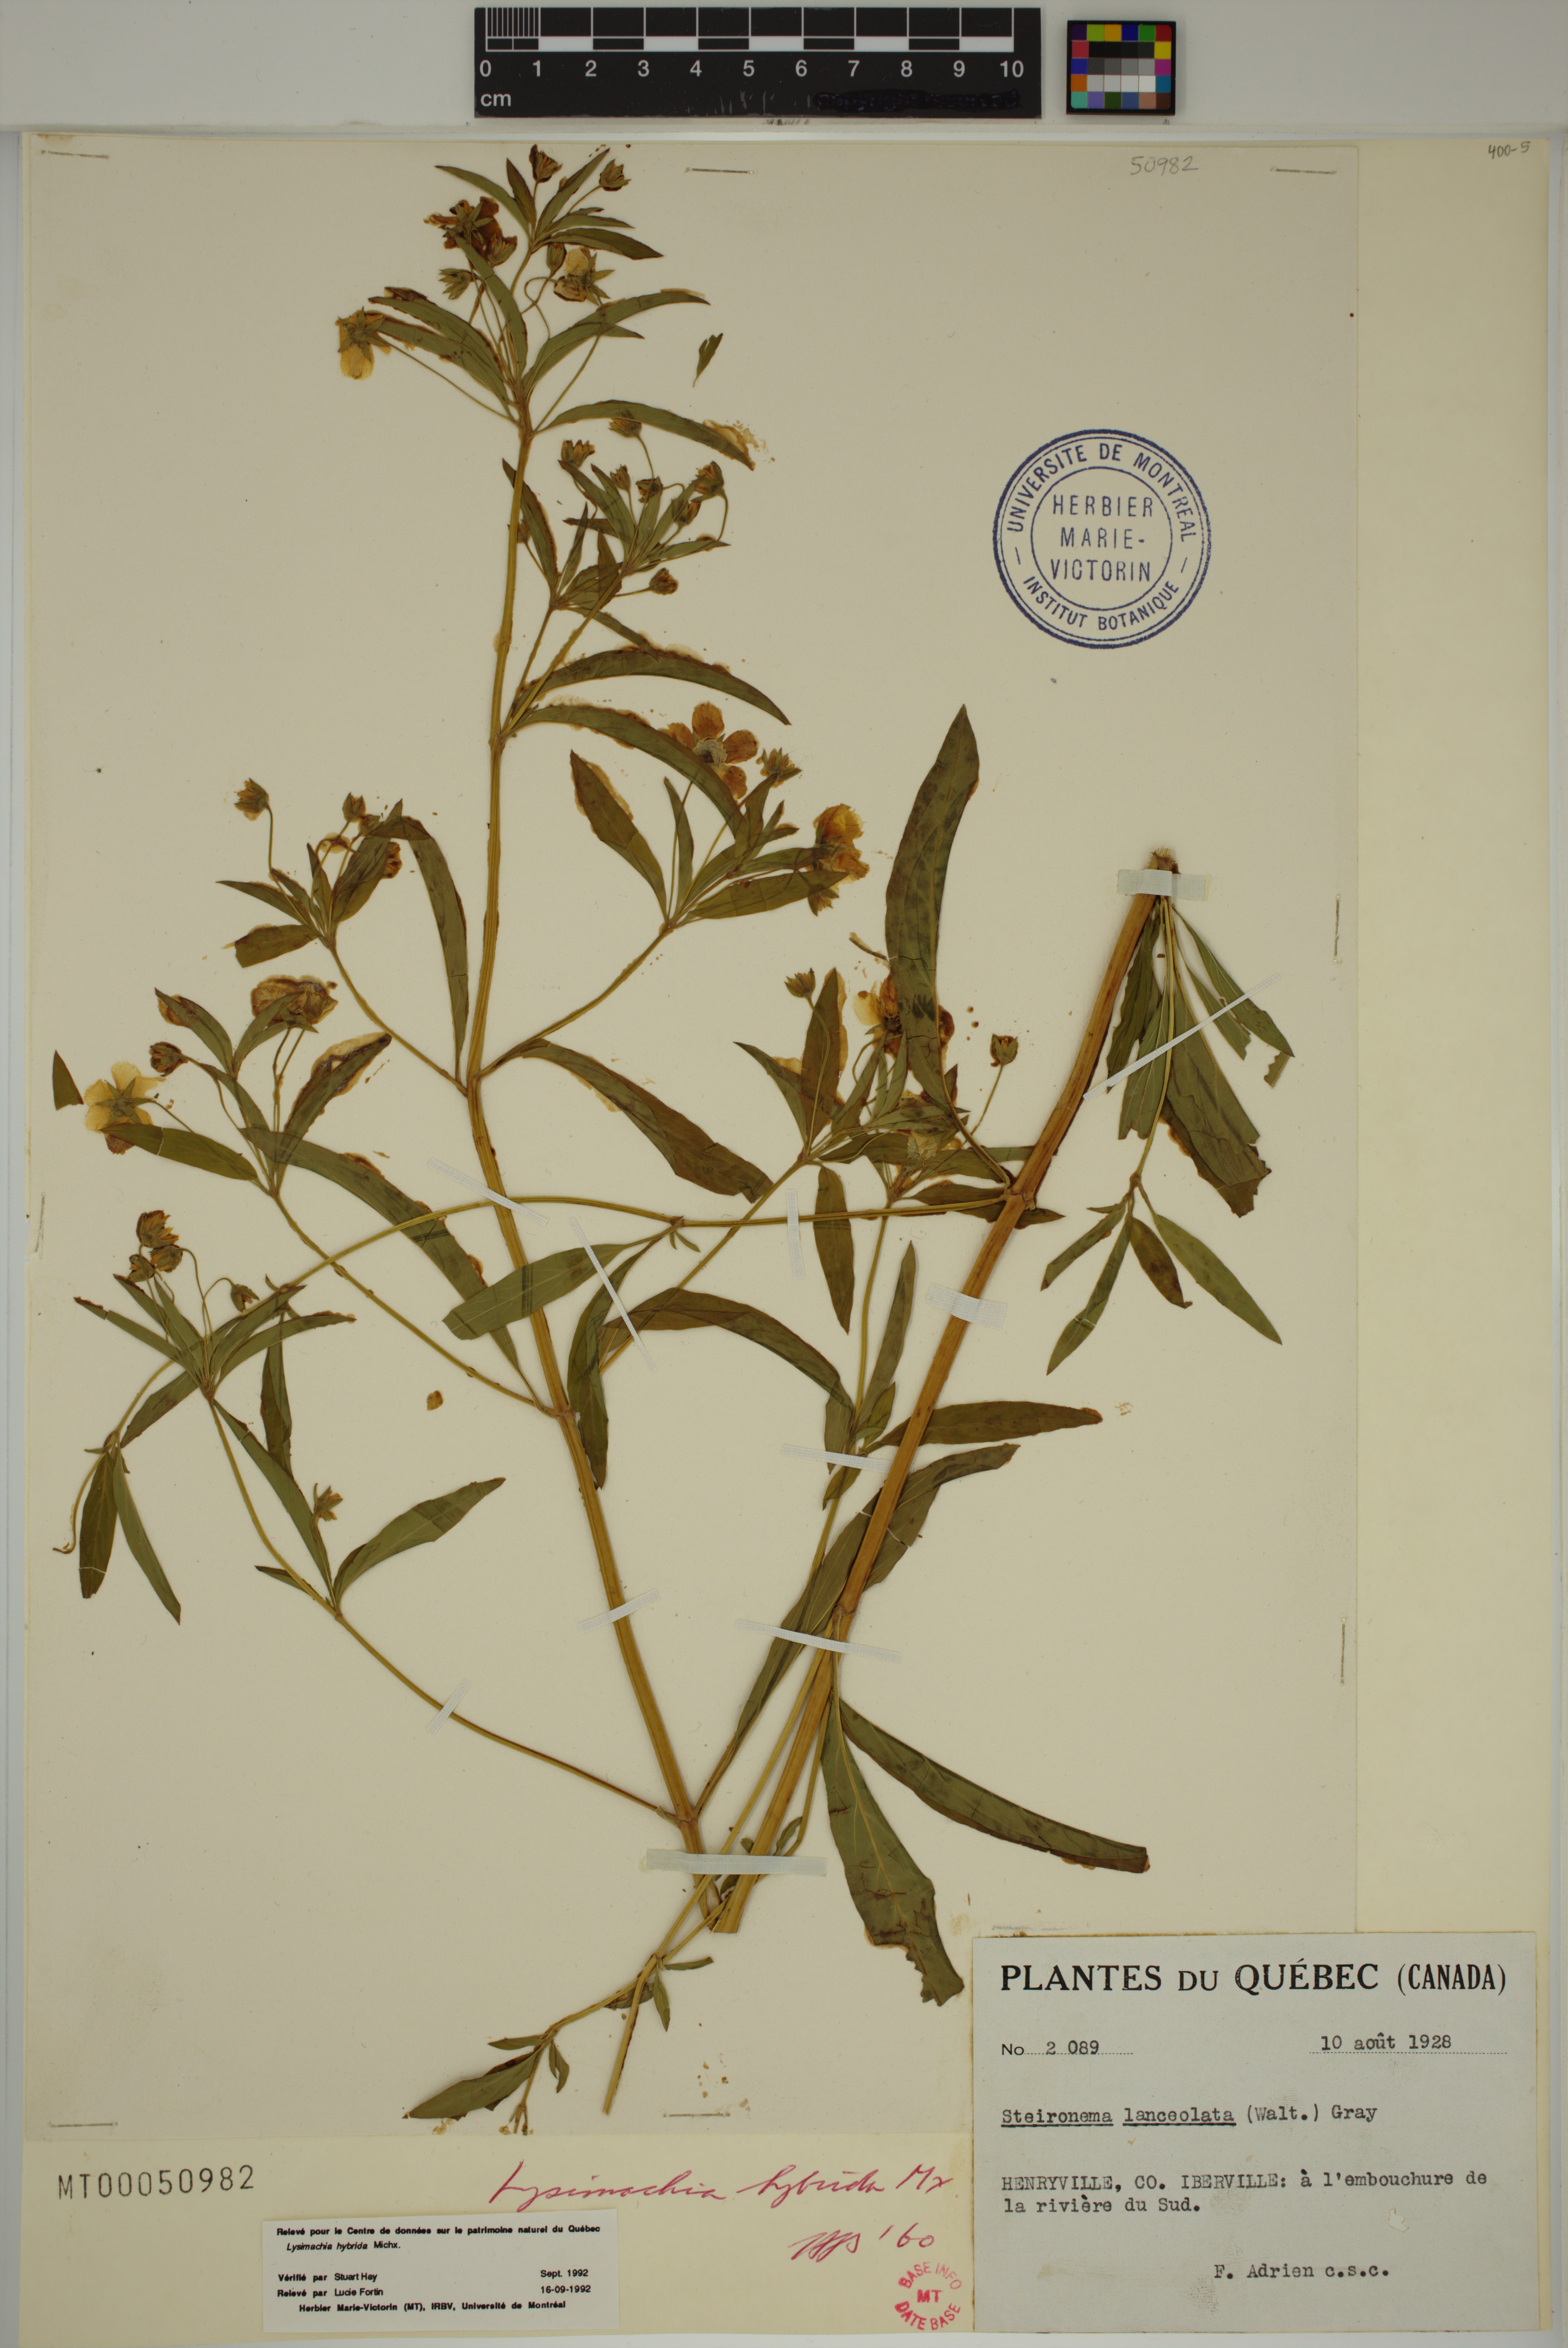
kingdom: Plantae
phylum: Tracheophyta
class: Magnoliopsida
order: Ericales
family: Primulaceae
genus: Lysimachia
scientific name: Lysimachia hybrida
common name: Lowland loosestrife
